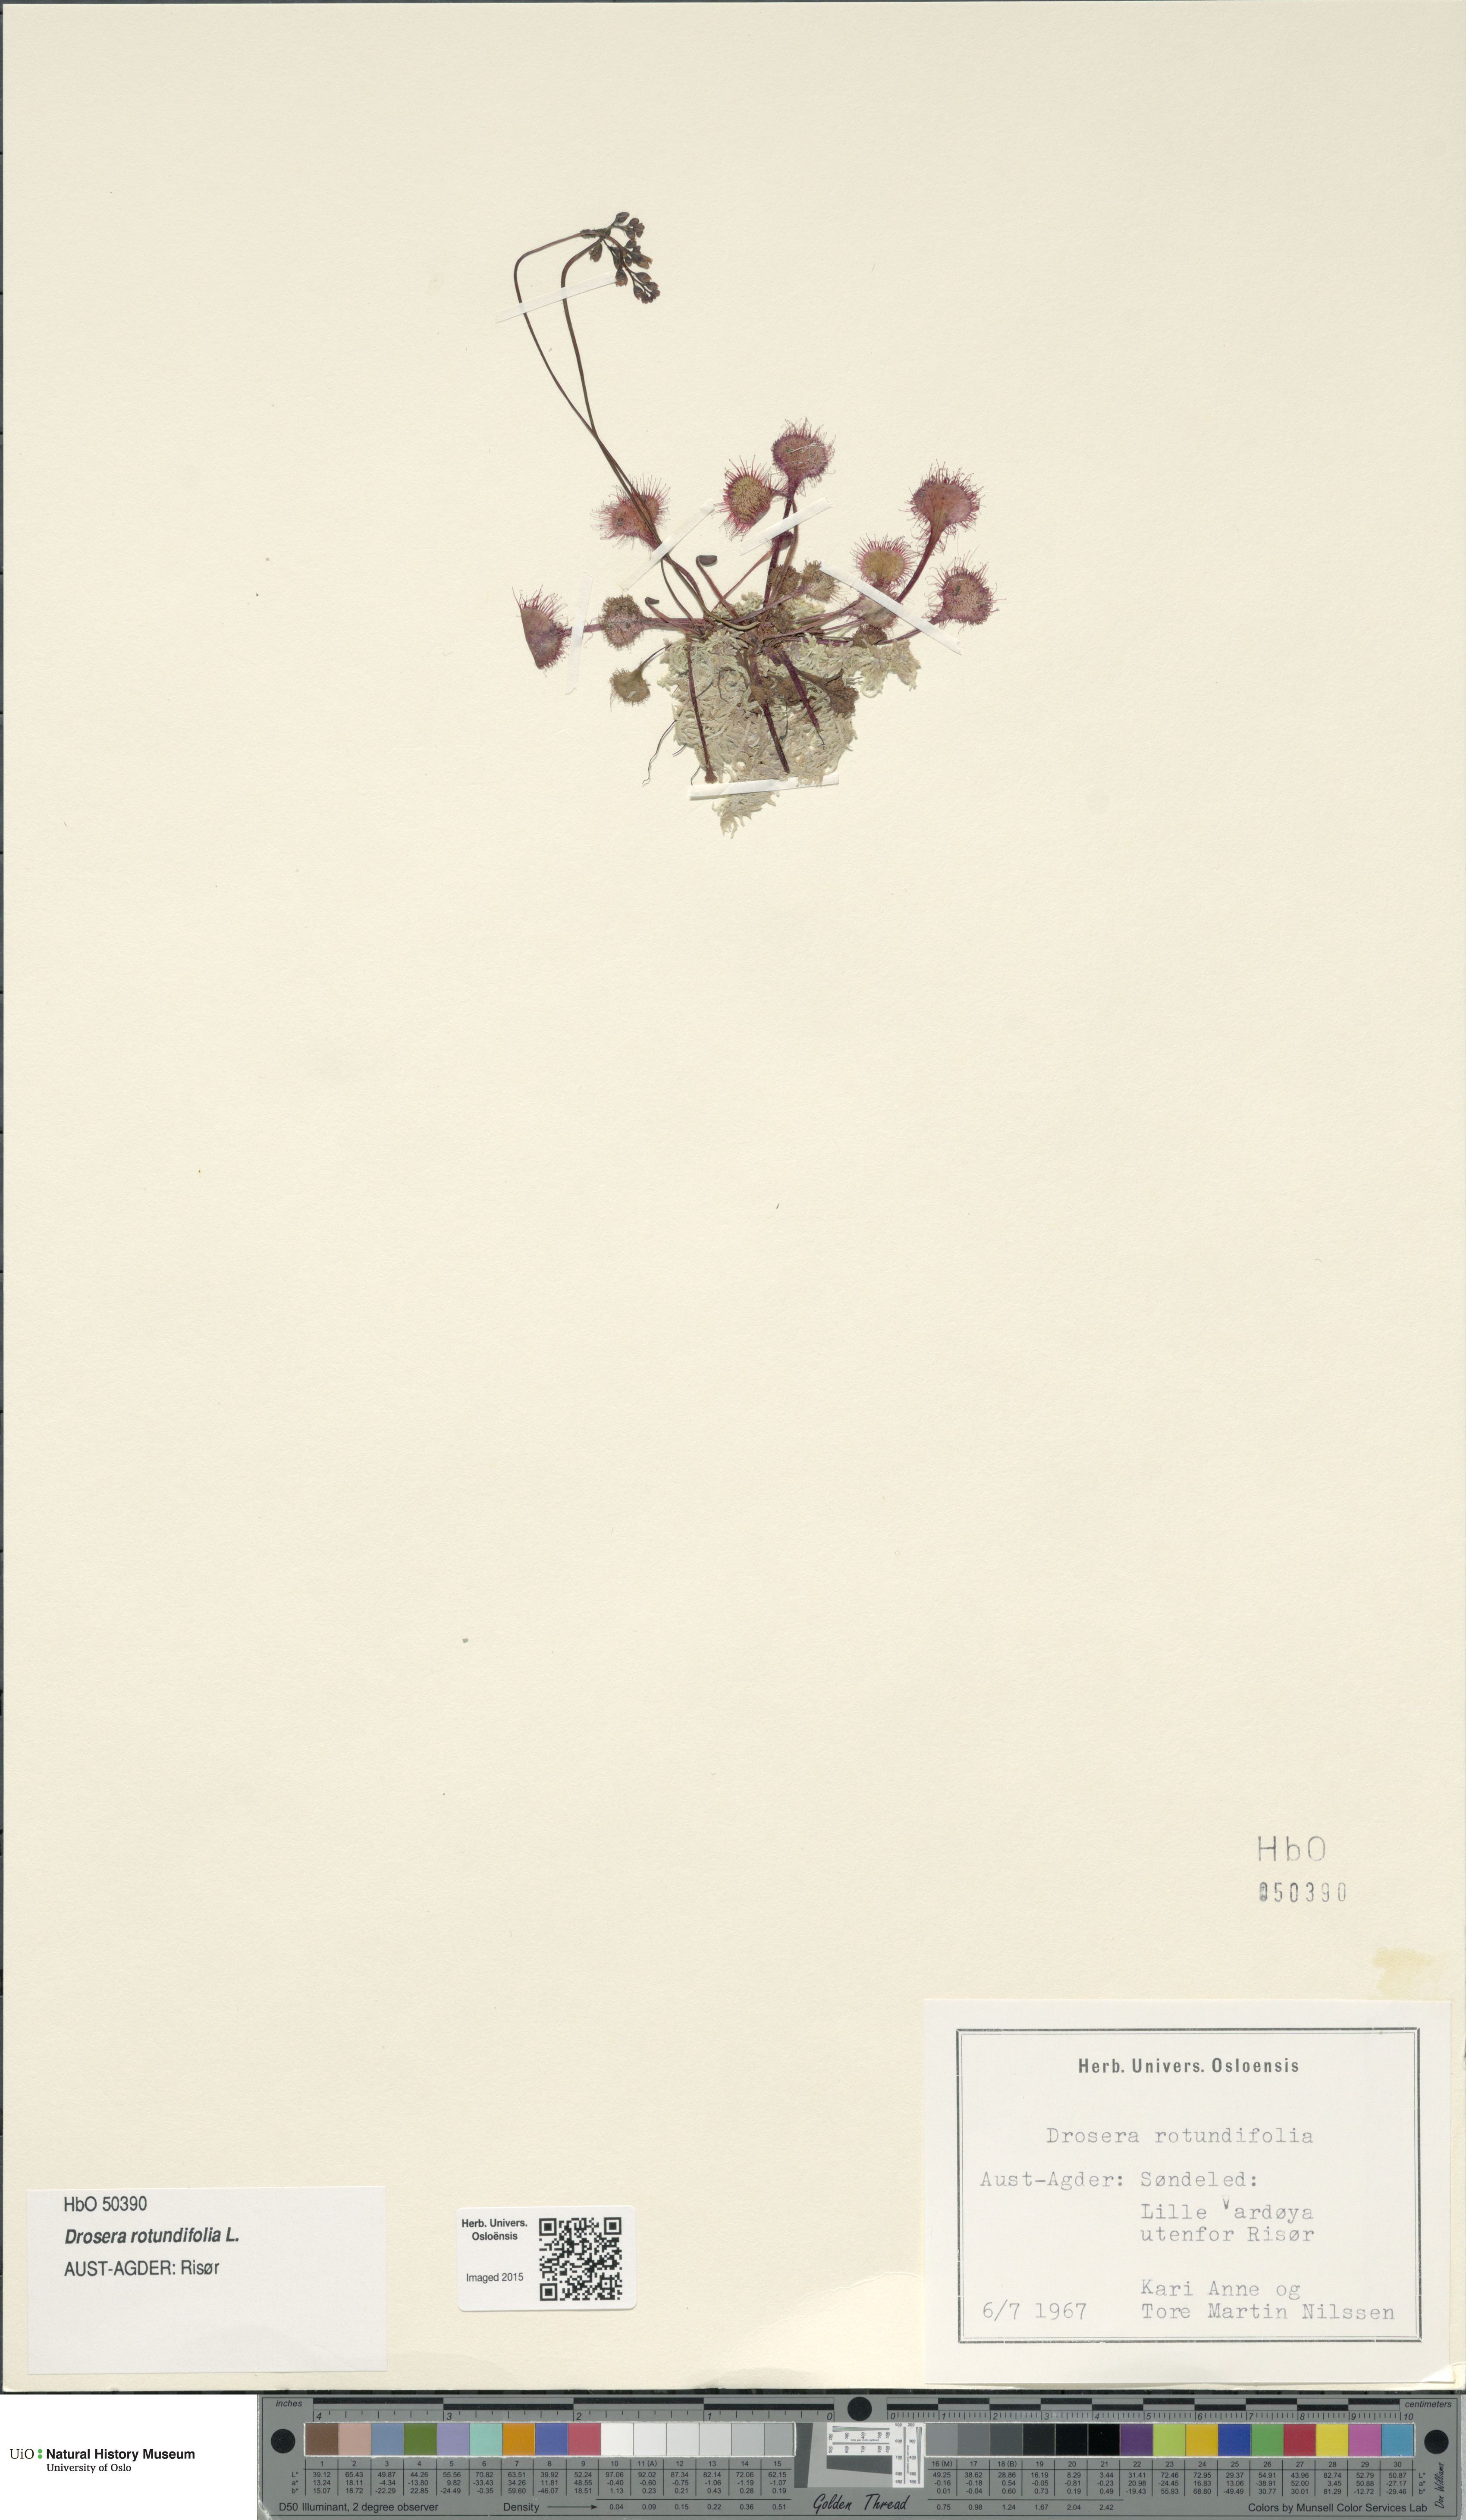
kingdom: Plantae
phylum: Tracheophyta
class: Magnoliopsida
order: Caryophyllales
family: Droseraceae
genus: Drosera
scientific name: Drosera rotundifolia
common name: Round-leaved sundew
